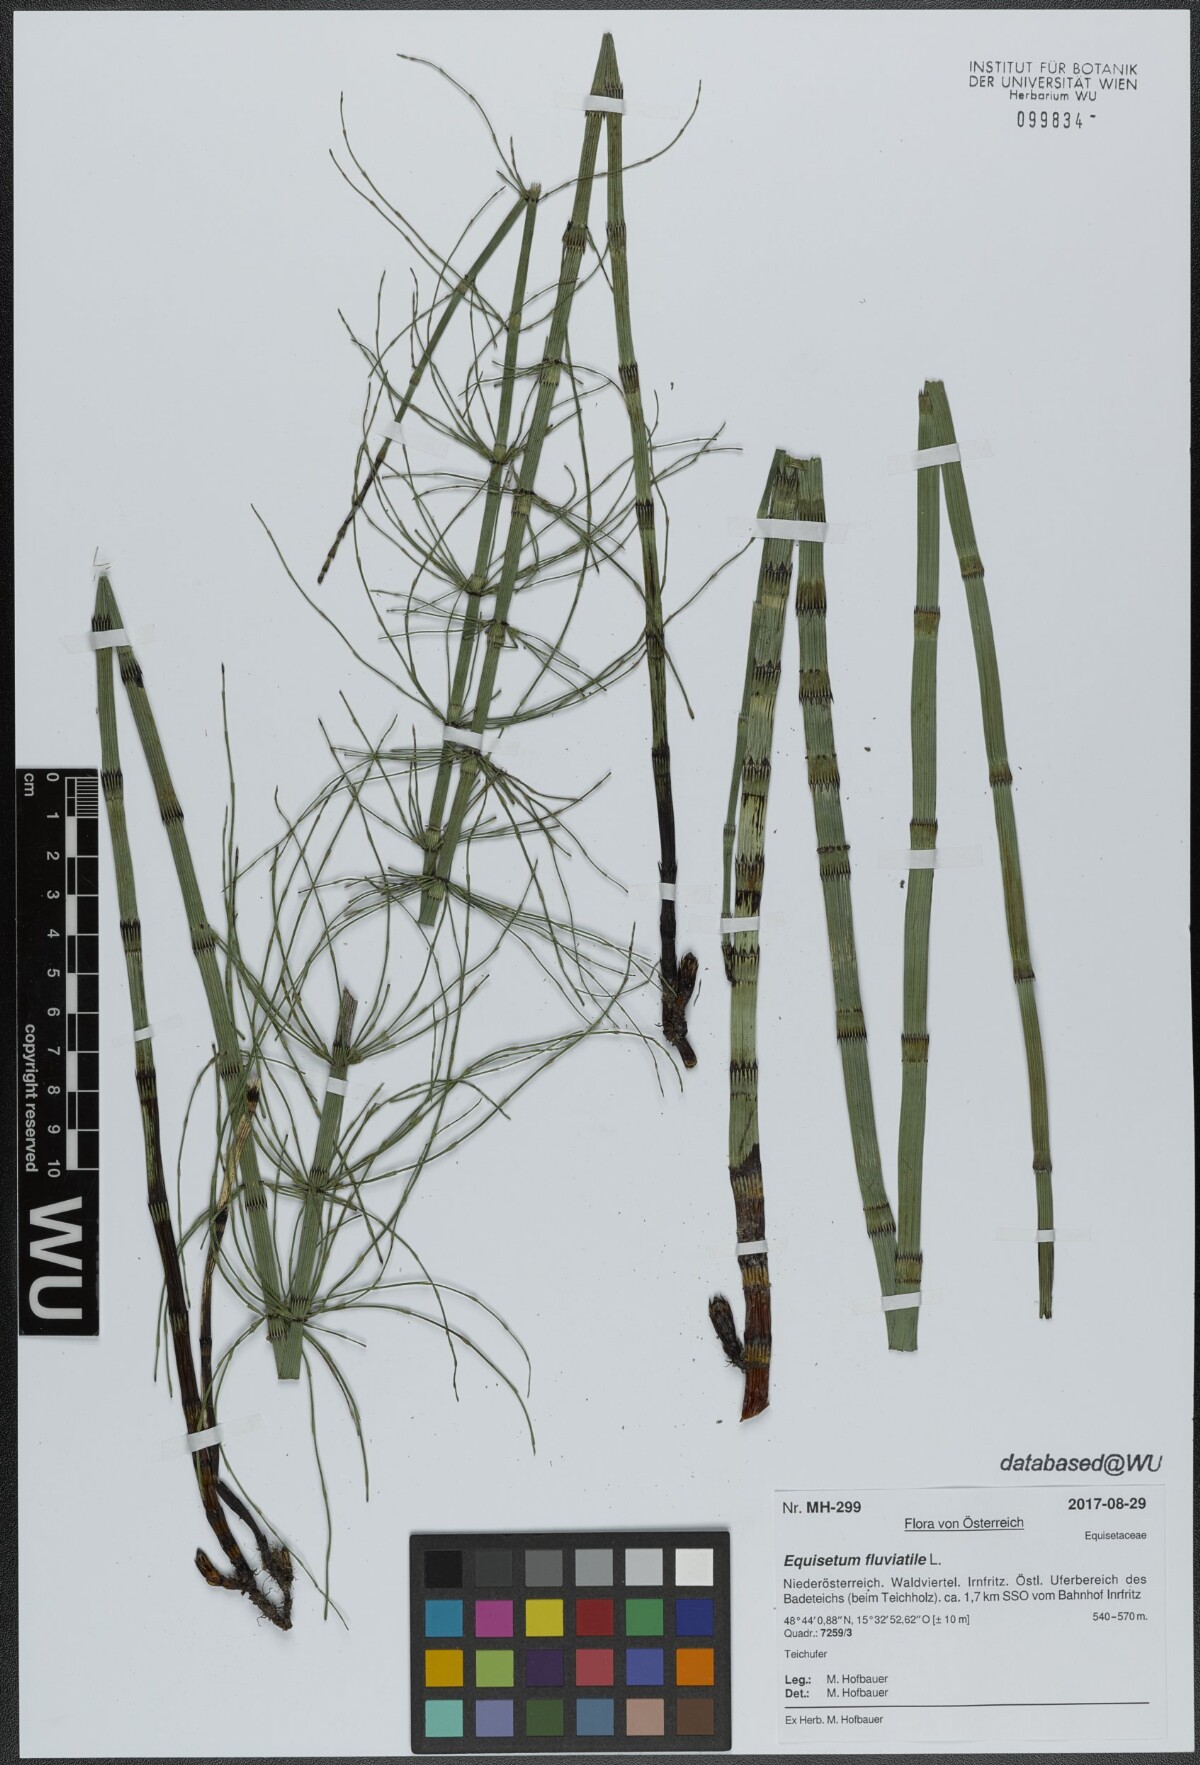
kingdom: Plantae
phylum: Tracheophyta
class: Polypodiopsida
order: Equisetales
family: Equisetaceae
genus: Equisetum
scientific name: Equisetum fluviatile
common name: Water horsetail
